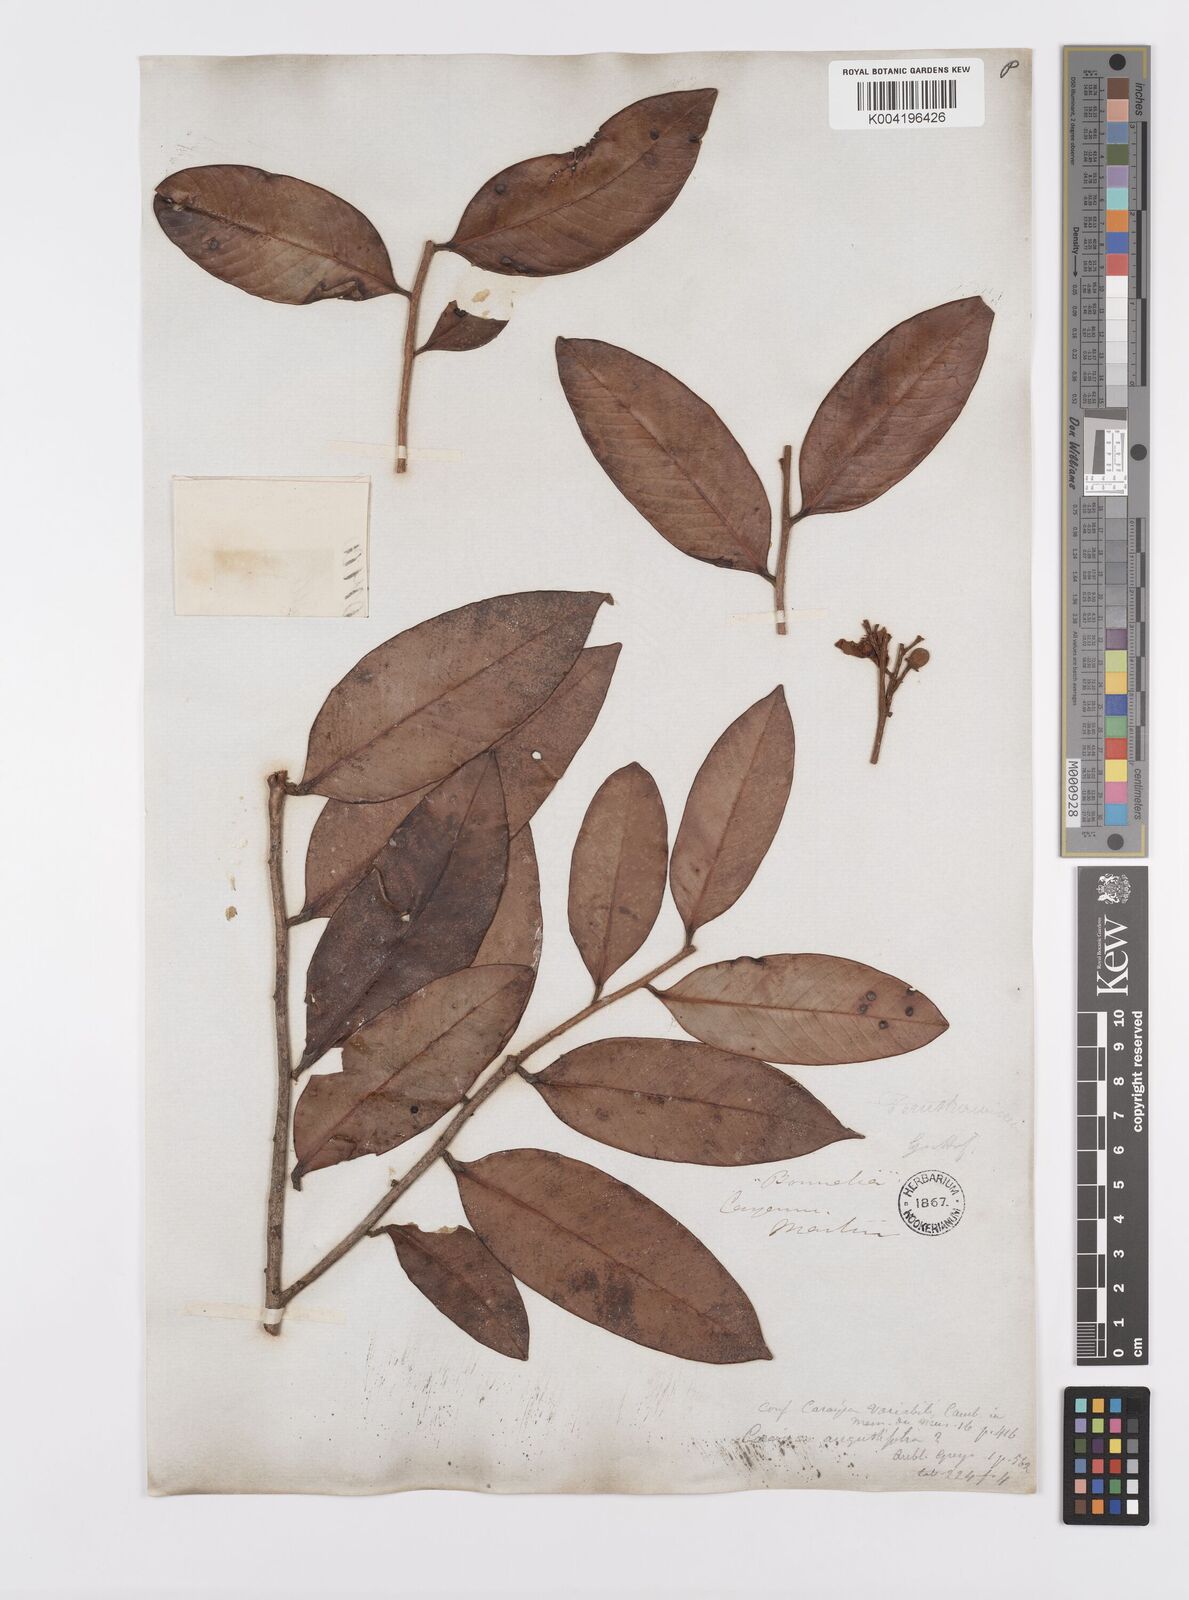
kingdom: Plantae
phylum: Tracheophyta
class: Magnoliopsida
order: Malpighiales
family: Calophyllaceae
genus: Caraipa
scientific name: Caraipa parvifolia
